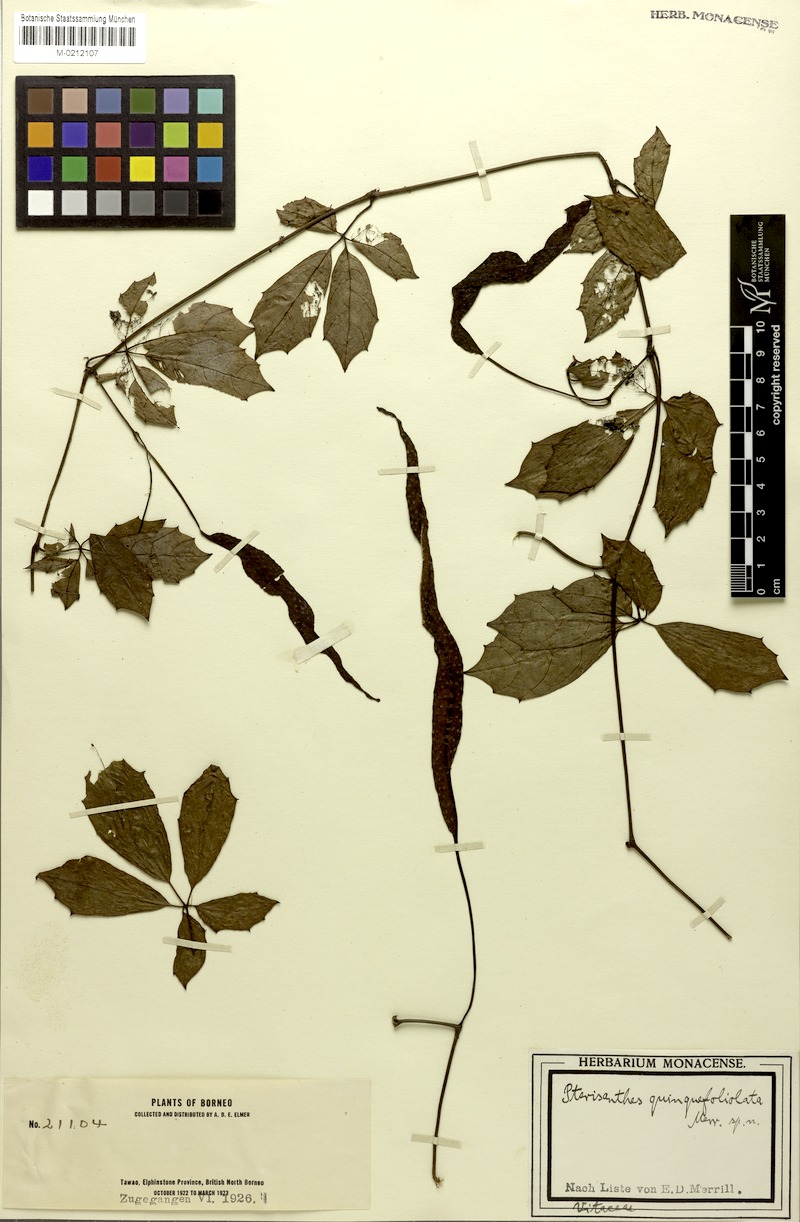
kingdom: Plantae
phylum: Tracheophyta
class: Magnoliopsida
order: Vitales
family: Vitaceae
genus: Pterisanthes
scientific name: Pterisanthes quinquefoliolata
